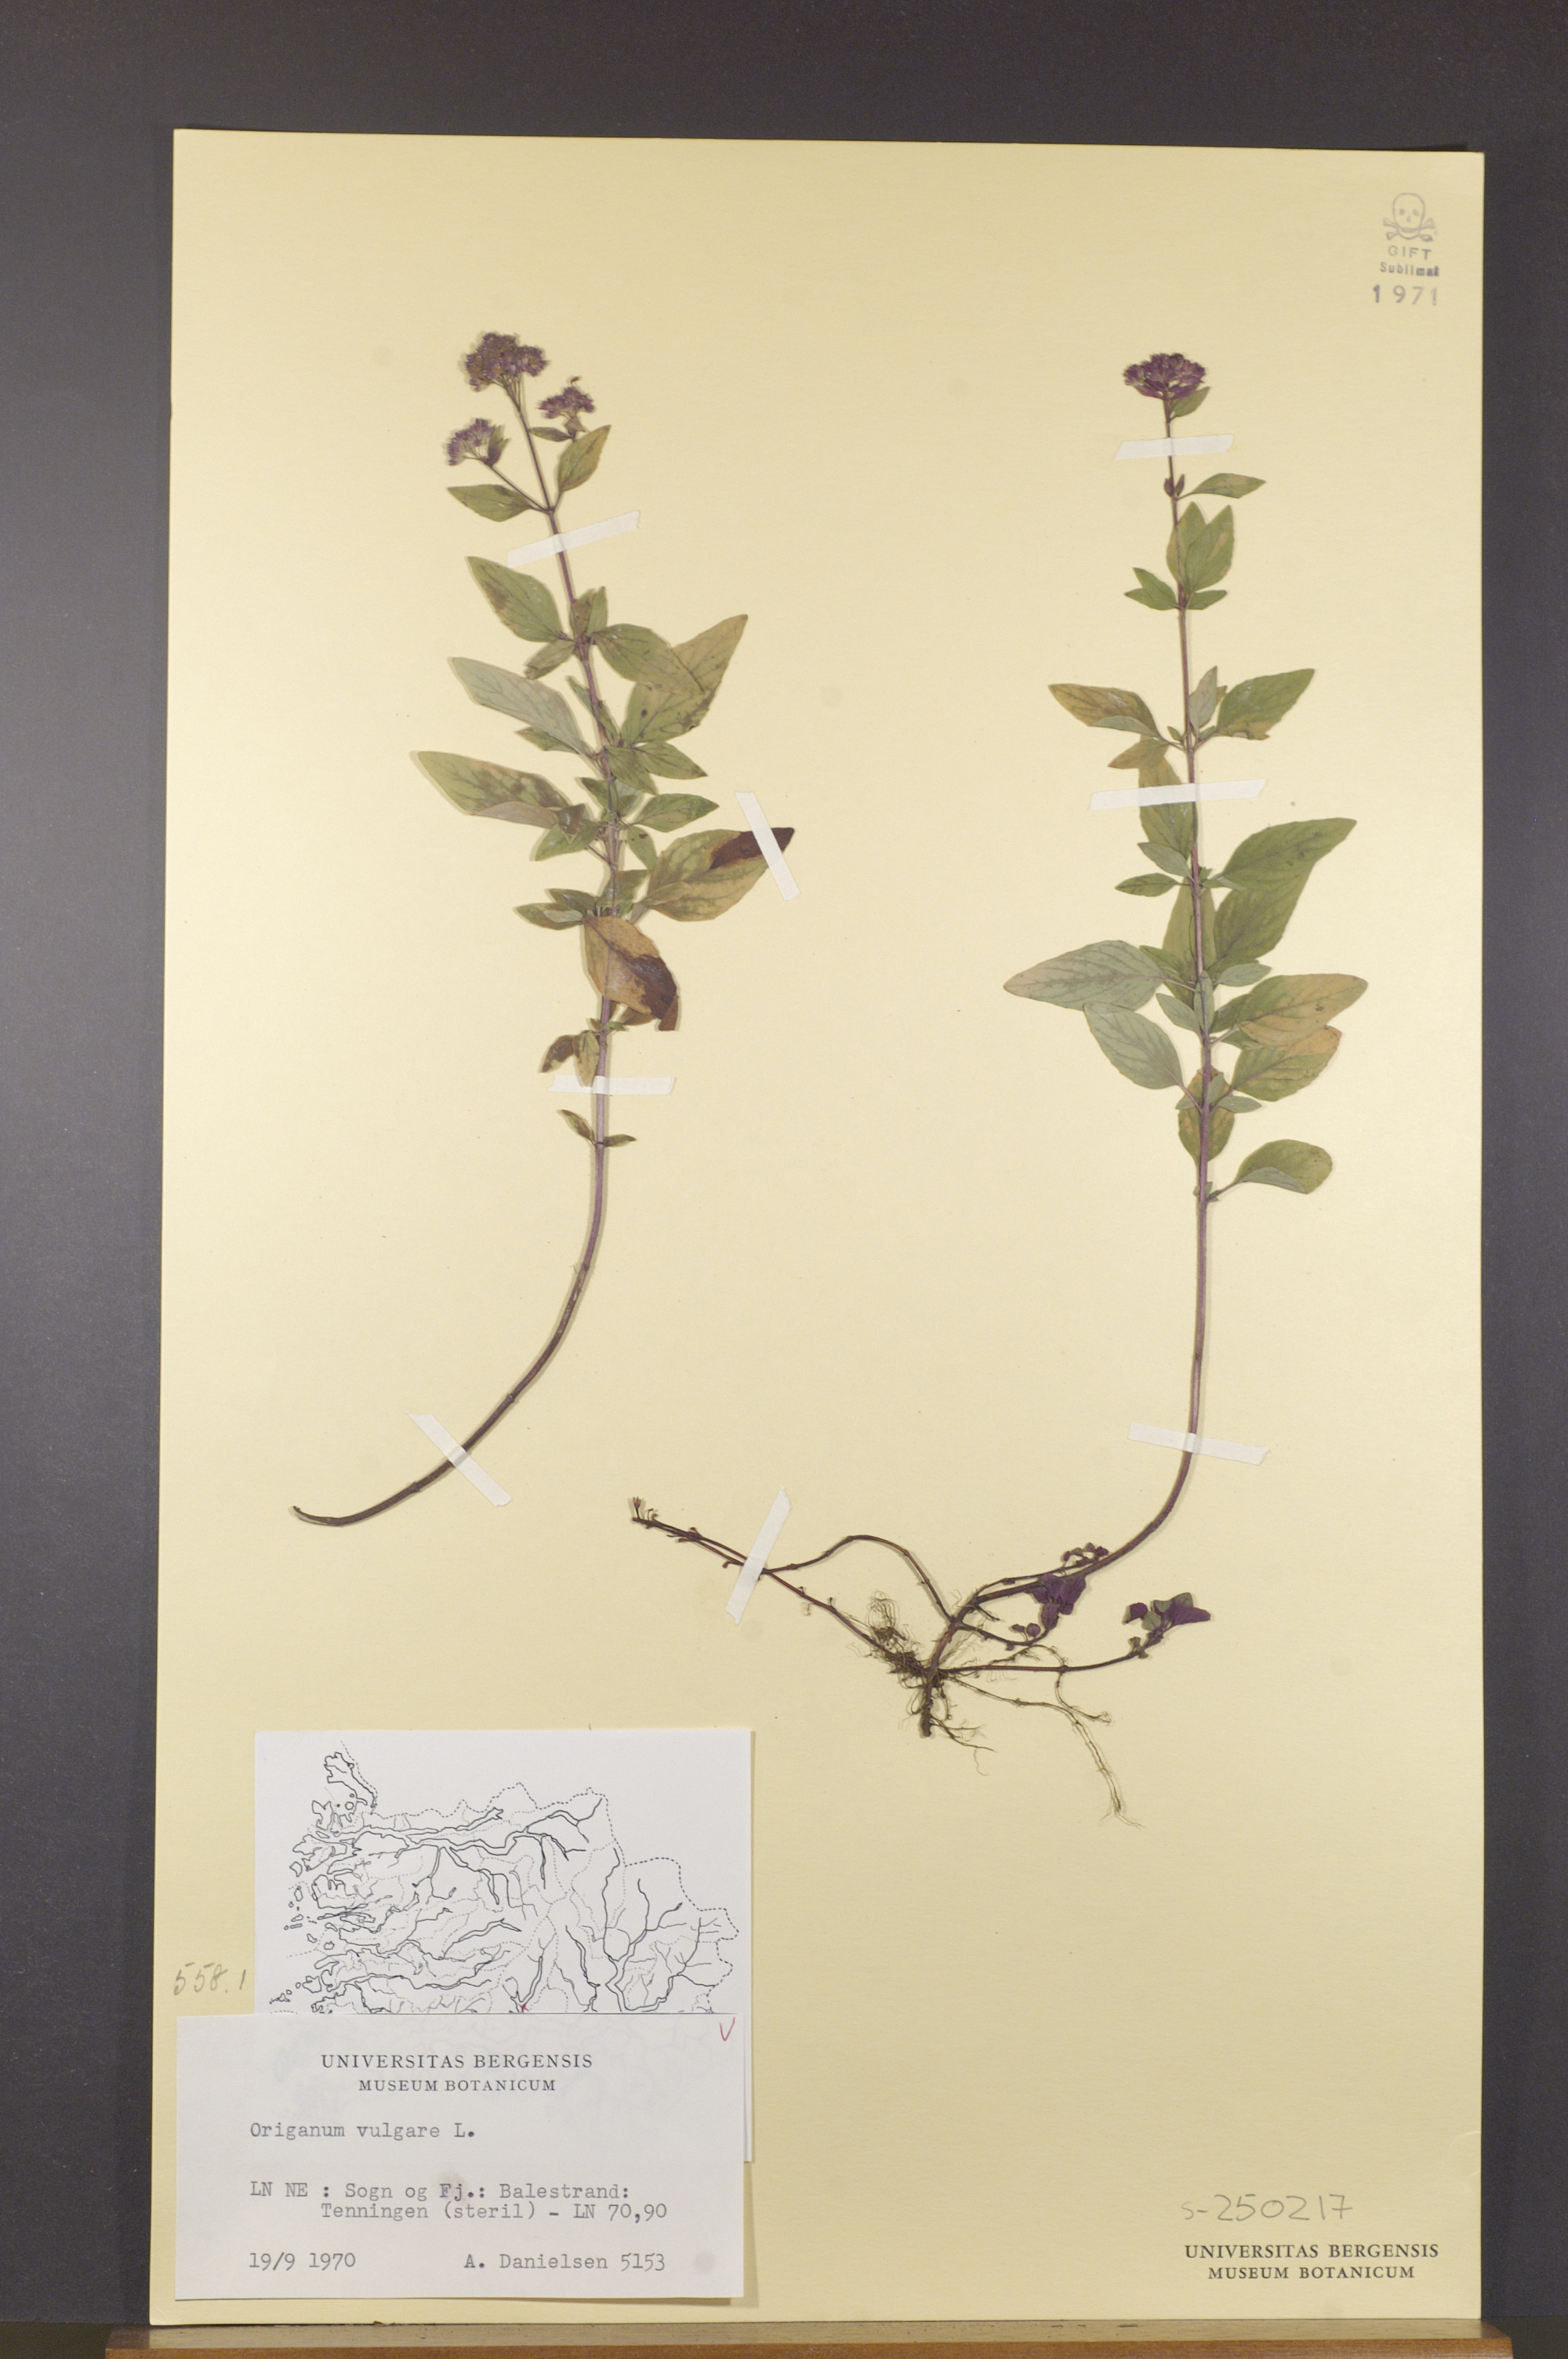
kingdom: Plantae
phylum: Tracheophyta
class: Magnoliopsida
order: Lamiales
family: Lamiaceae
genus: Origanum
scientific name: Origanum vulgare
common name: Wild marjoram
